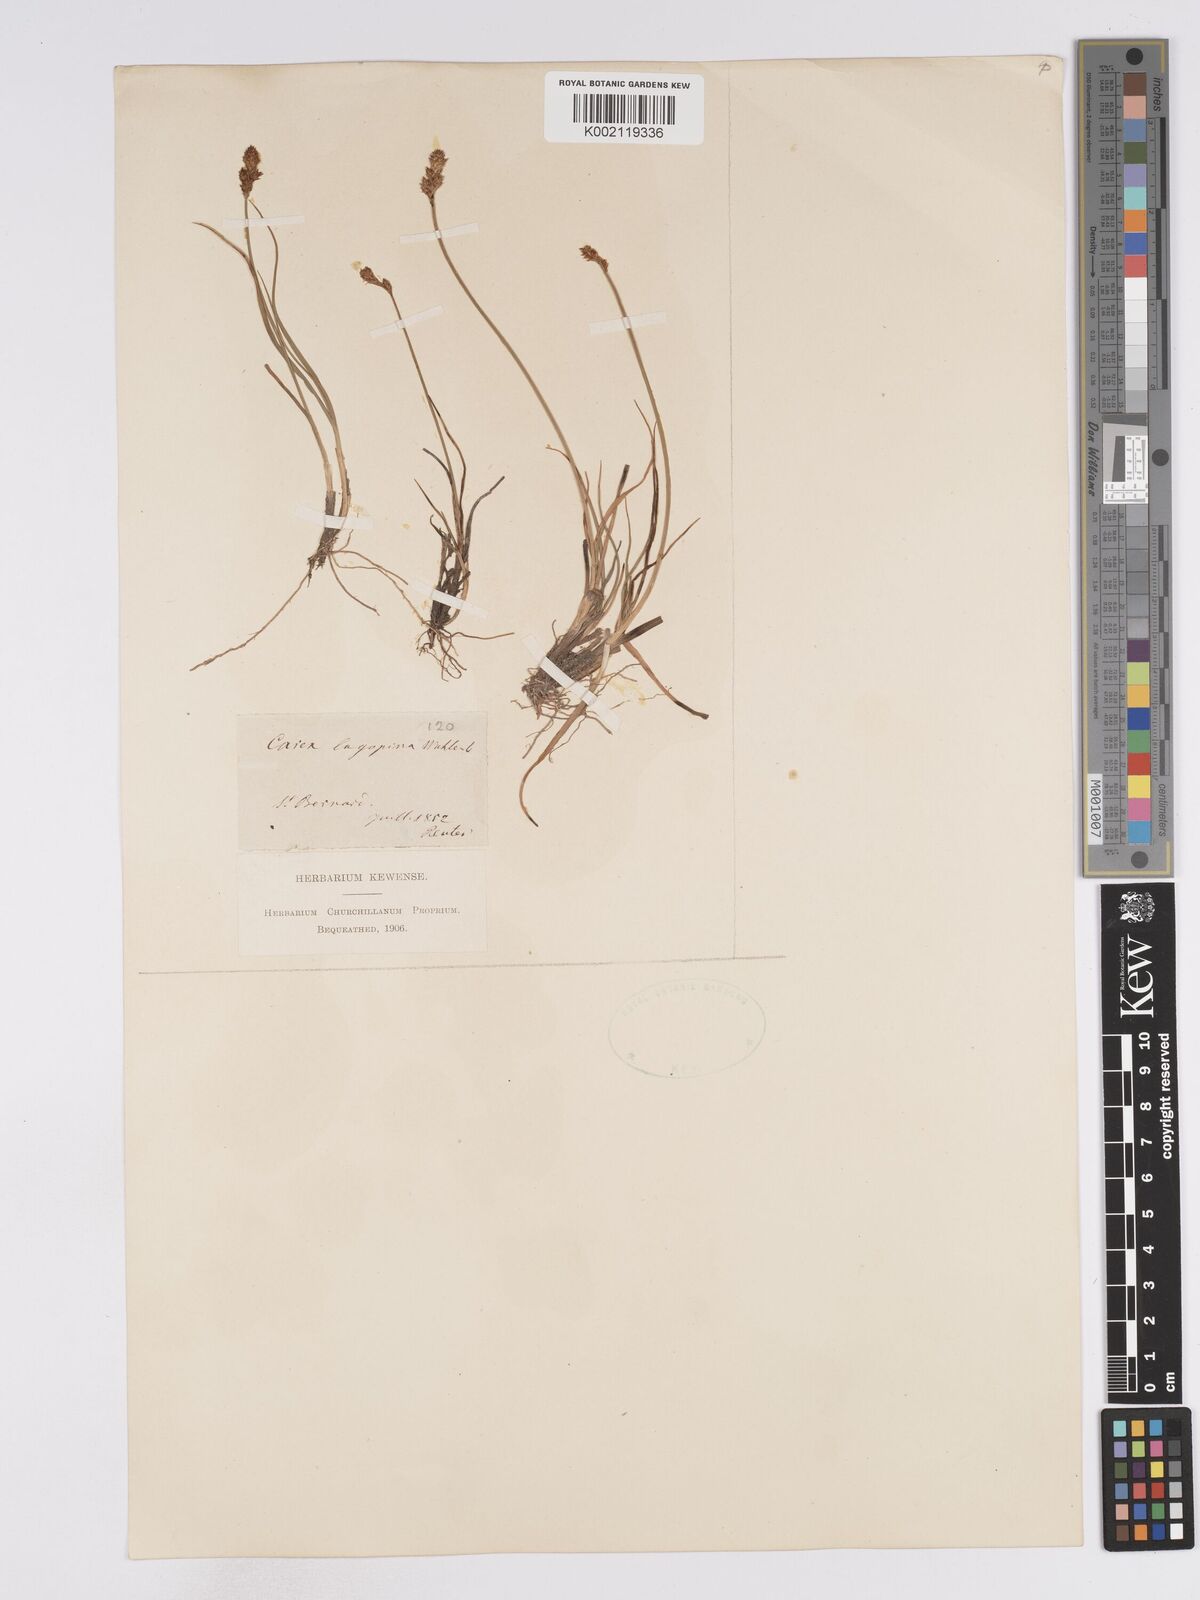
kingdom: Plantae
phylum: Tracheophyta
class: Liliopsida
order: Poales
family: Cyperaceae
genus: Carex
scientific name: Carex lachenalii
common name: Hare's-foot sedge
